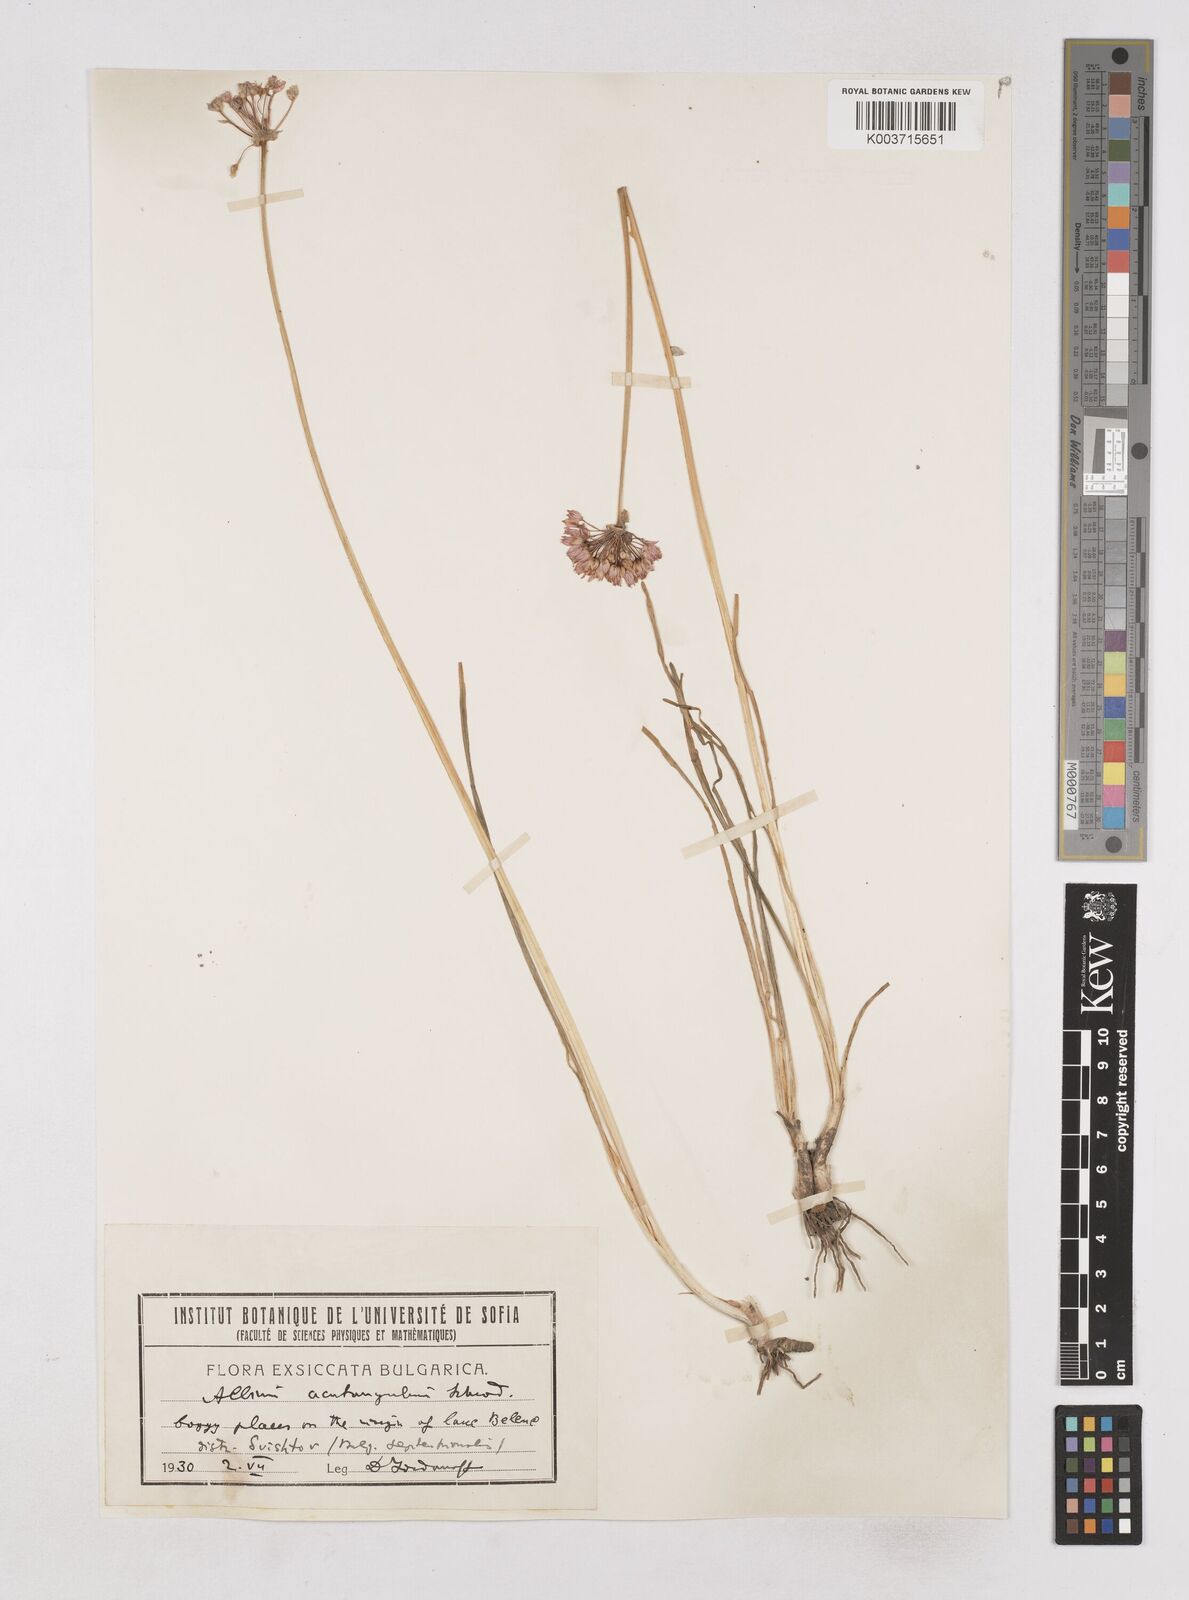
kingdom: Plantae
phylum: Tracheophyta
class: Liliopsida
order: Asparagales
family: Amaryllidaceae
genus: Allium
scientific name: Allium angulosum
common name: Mouse garlic
